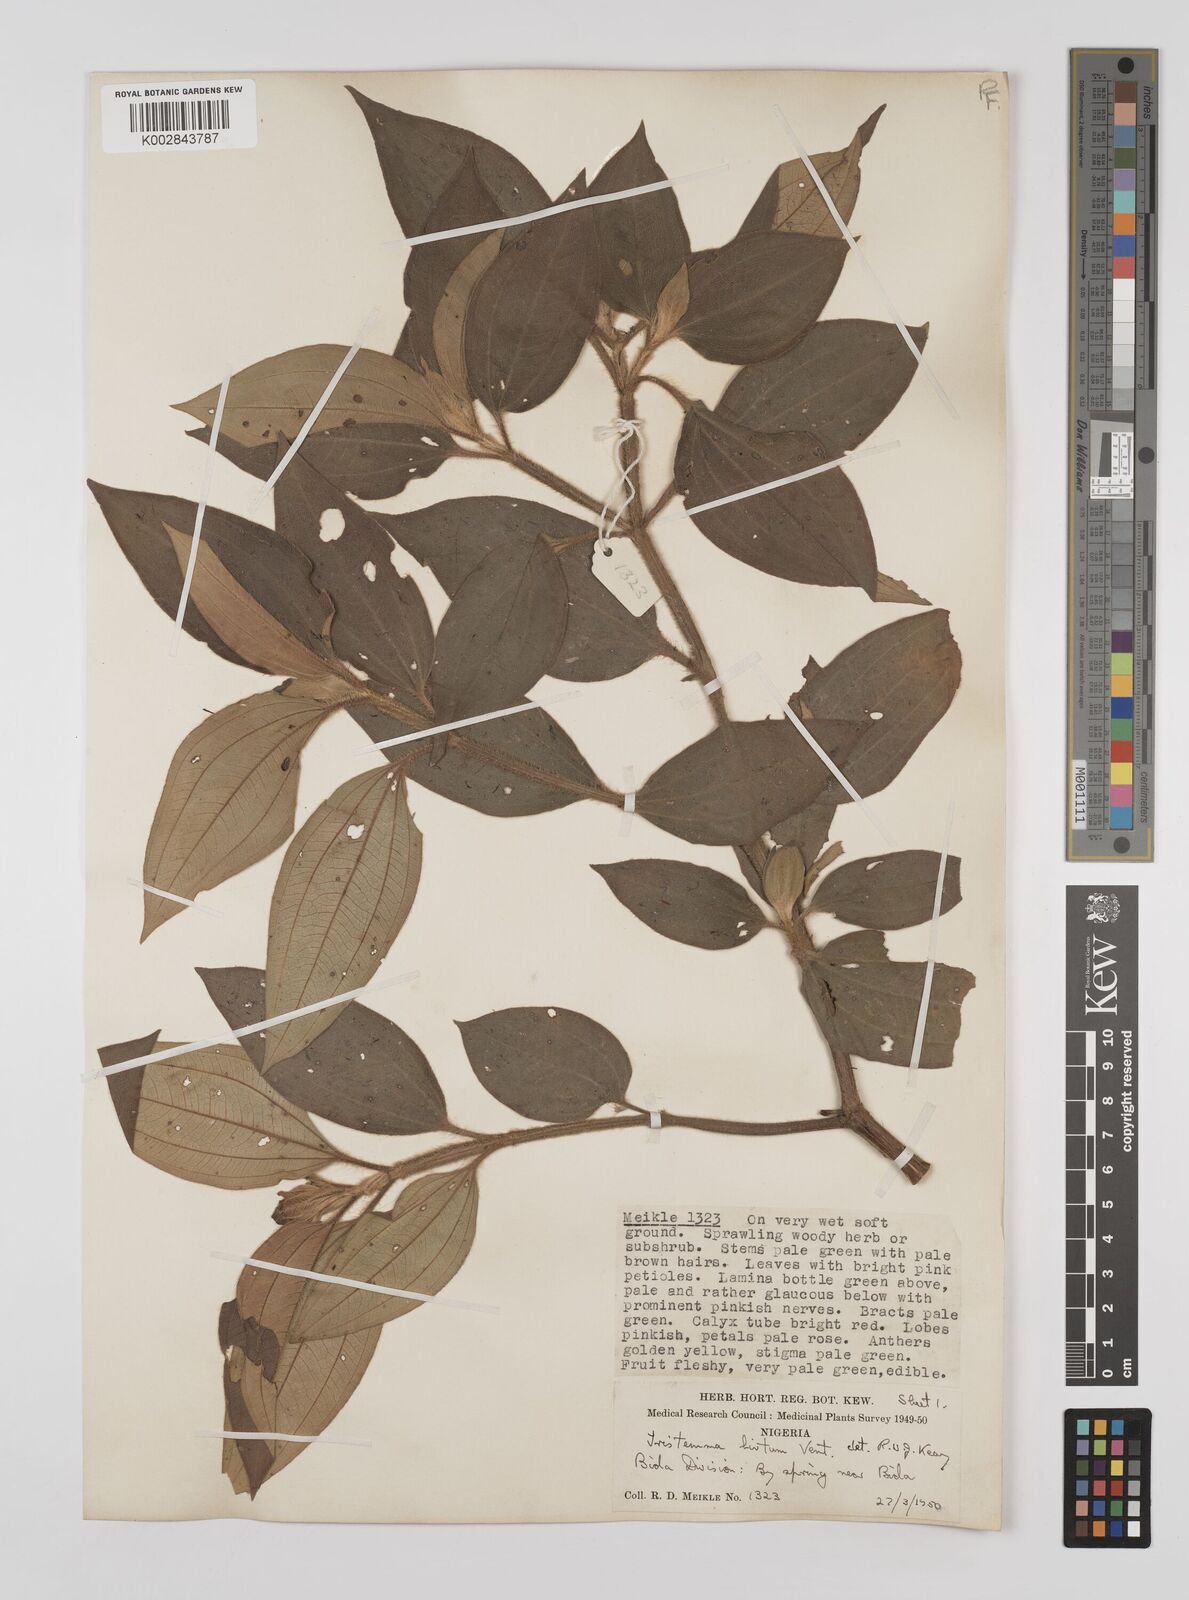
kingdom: Plantae
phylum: Tracheophyta
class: Magnoliopsida
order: Myrtales
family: Melastomataceae
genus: Tristemma
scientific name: Tristemma hirtum
